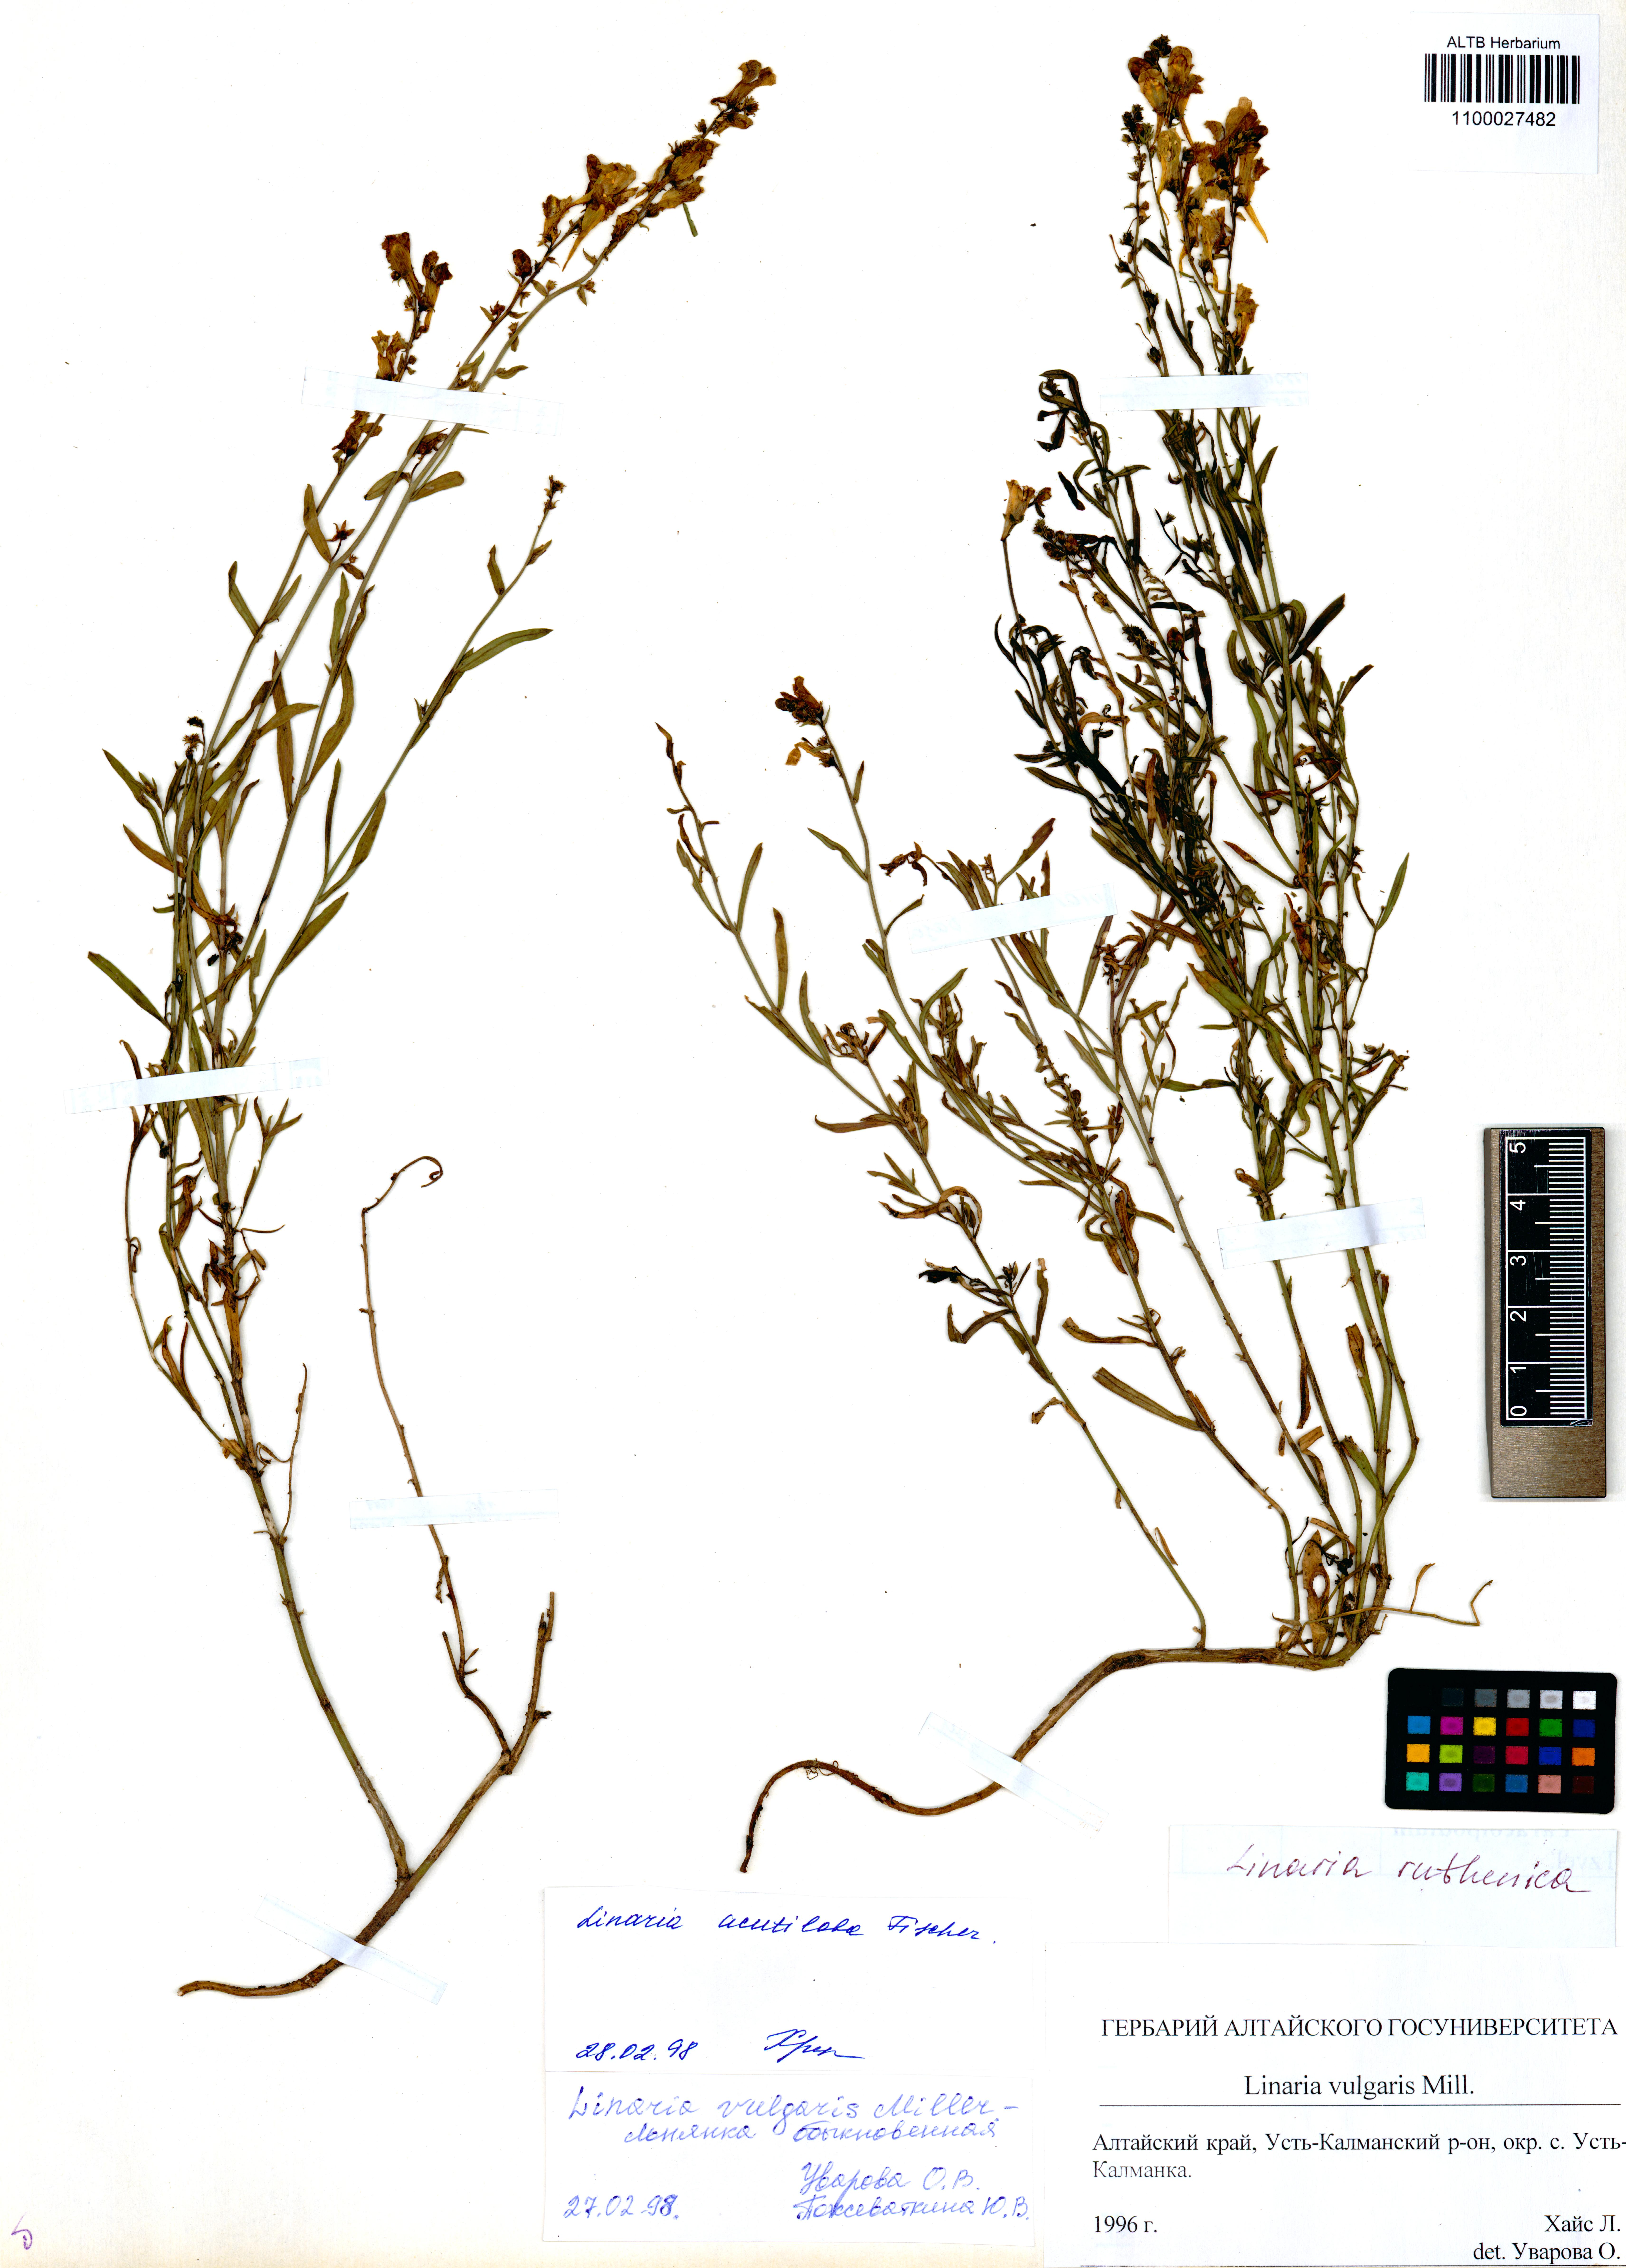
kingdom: Plantae
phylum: Tracheophyta
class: Magnoliopsida
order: Lamiales
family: Plantaginaceae
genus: Linaria
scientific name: Linaria biebersteinii
